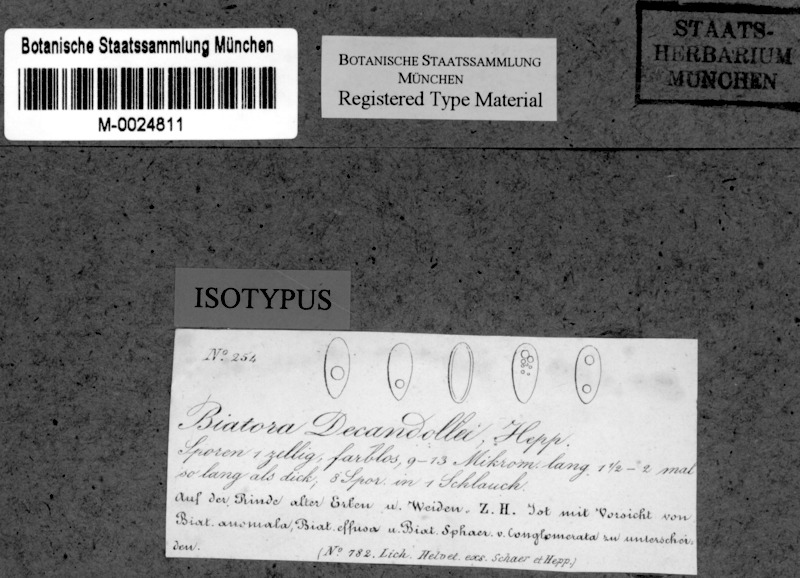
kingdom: Fungi
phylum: Ascomycota
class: Lecanoromycetes
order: Lecanorales
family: Ramalinaceae
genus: Biatora
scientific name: Biatora
